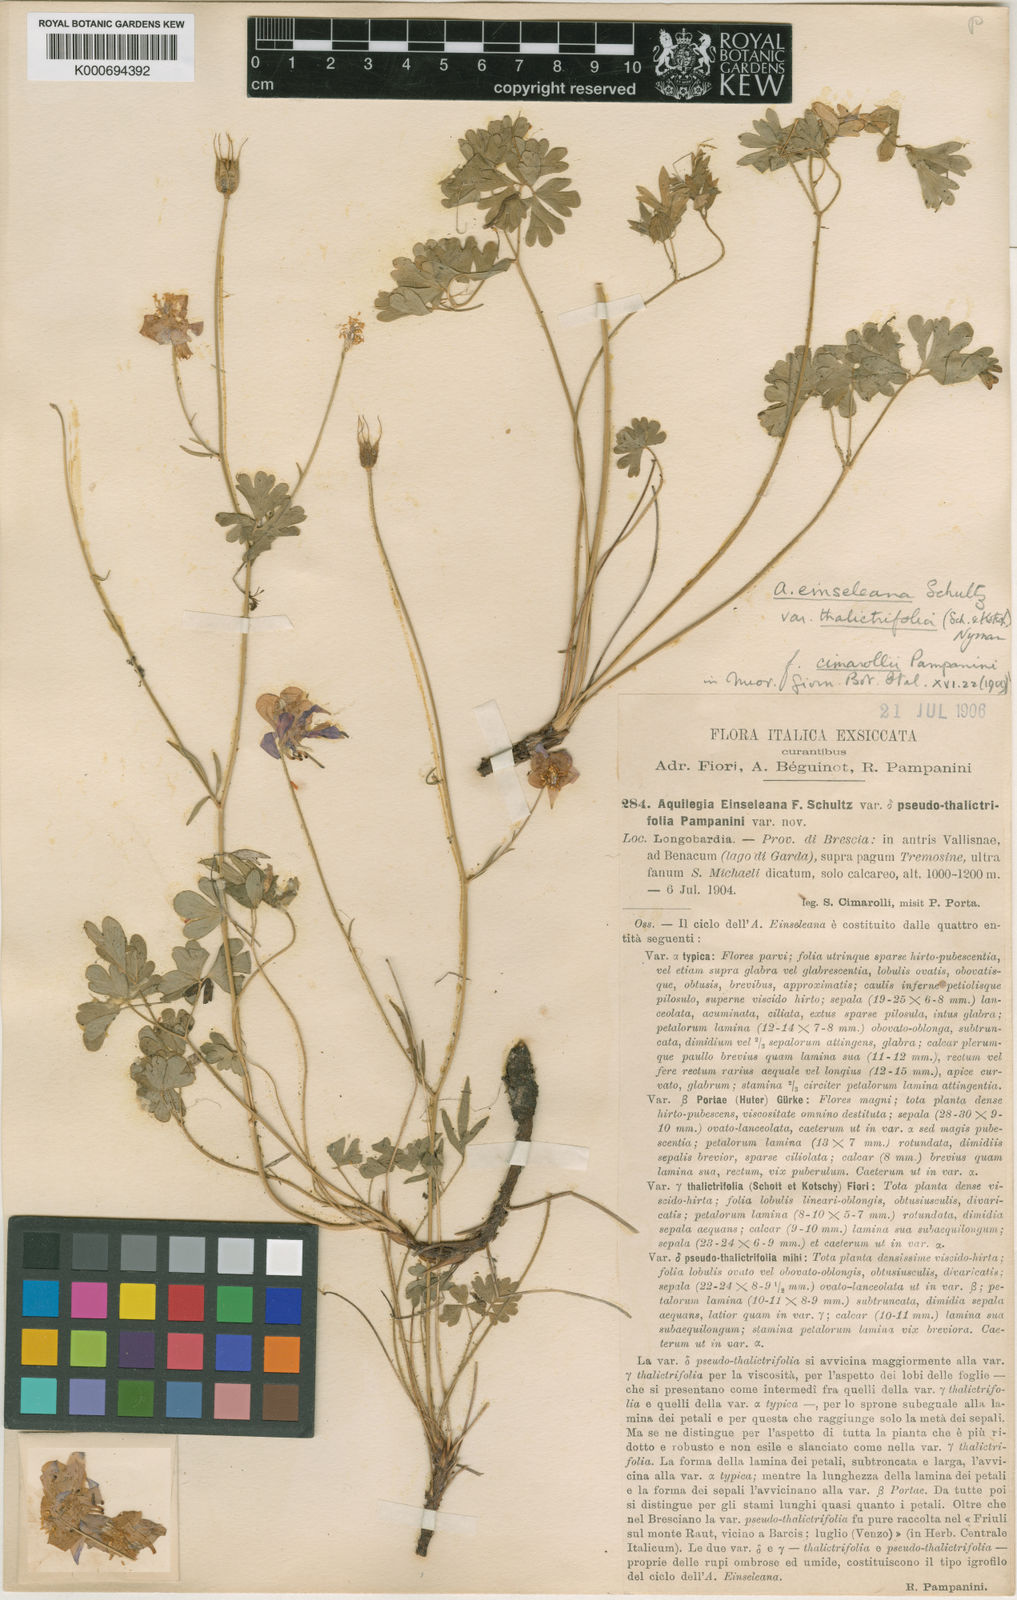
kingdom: Plantae
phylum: Tracheophyta
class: Magnoliopsida
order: Ranunculales
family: Ranunculaceae
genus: Aquilegia
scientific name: Aquilegia thalictrifolia
